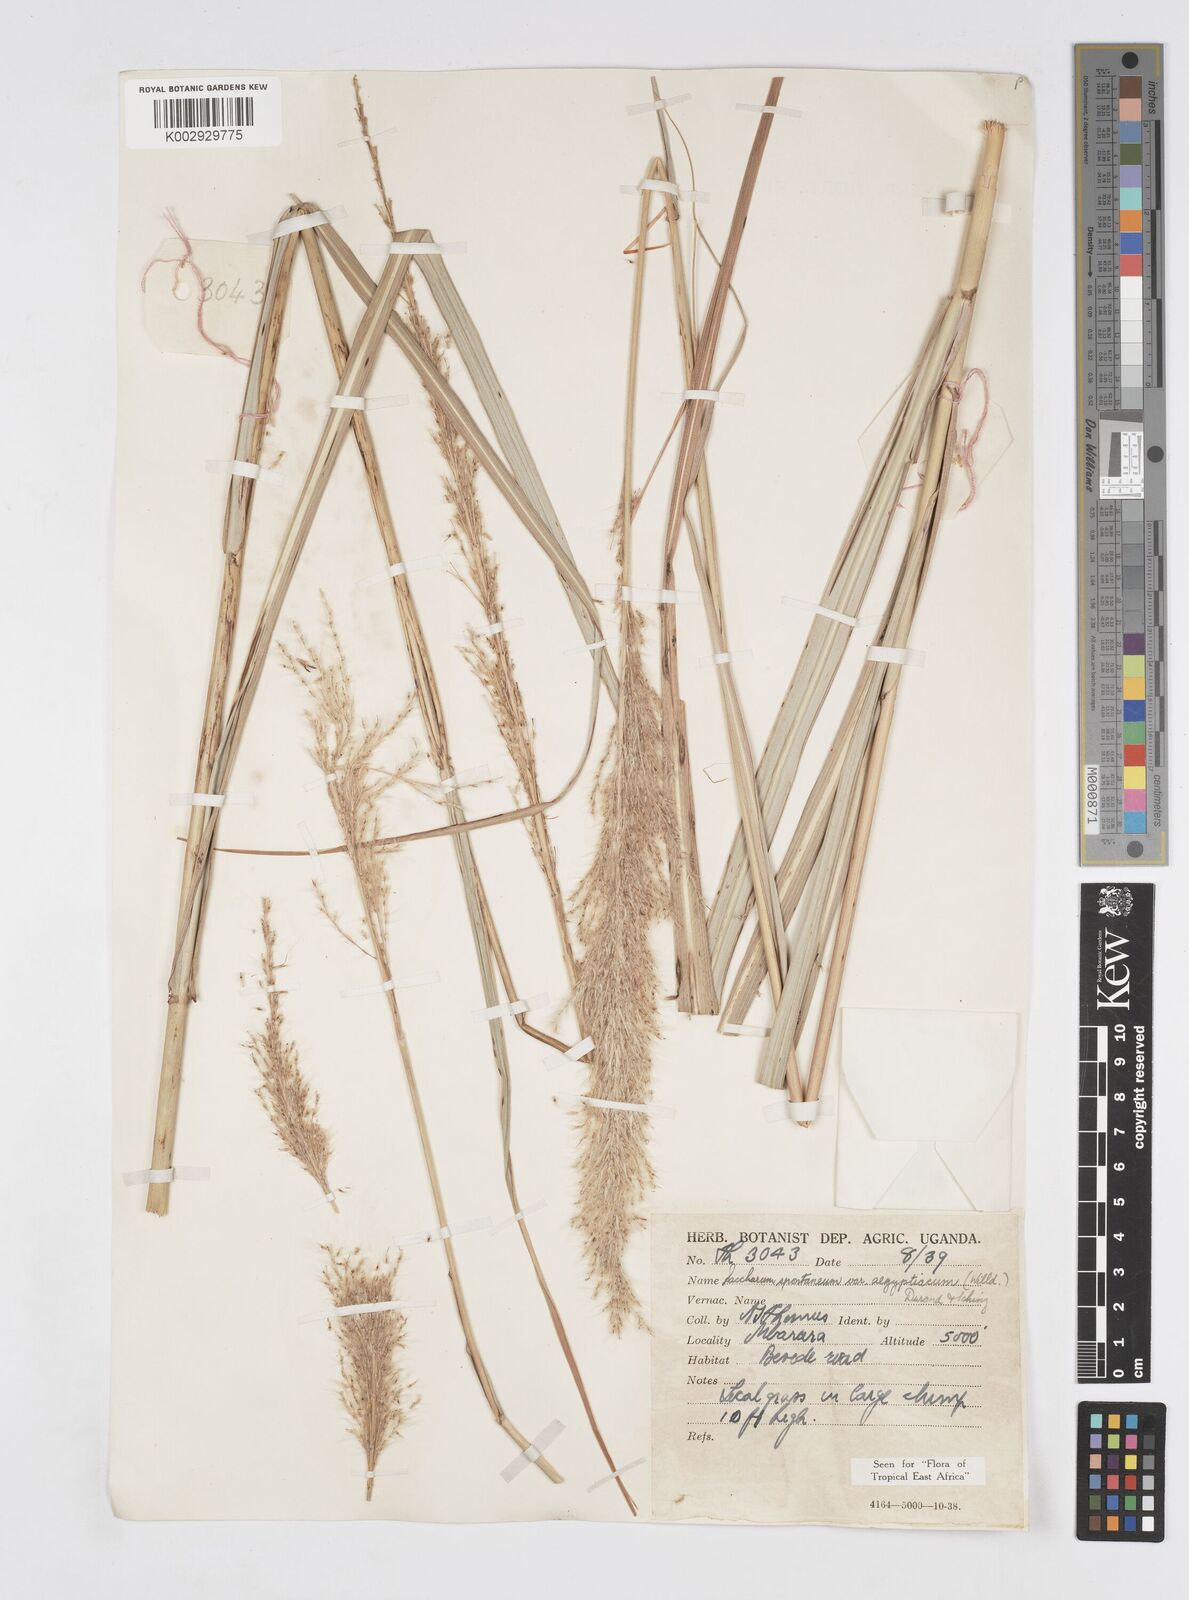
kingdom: Plantae
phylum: Tracheophyta
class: Liliopsida
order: Poales
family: Poaceae
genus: Saccharum
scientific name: Saccharum spontaneum
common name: Wild sugarcane
